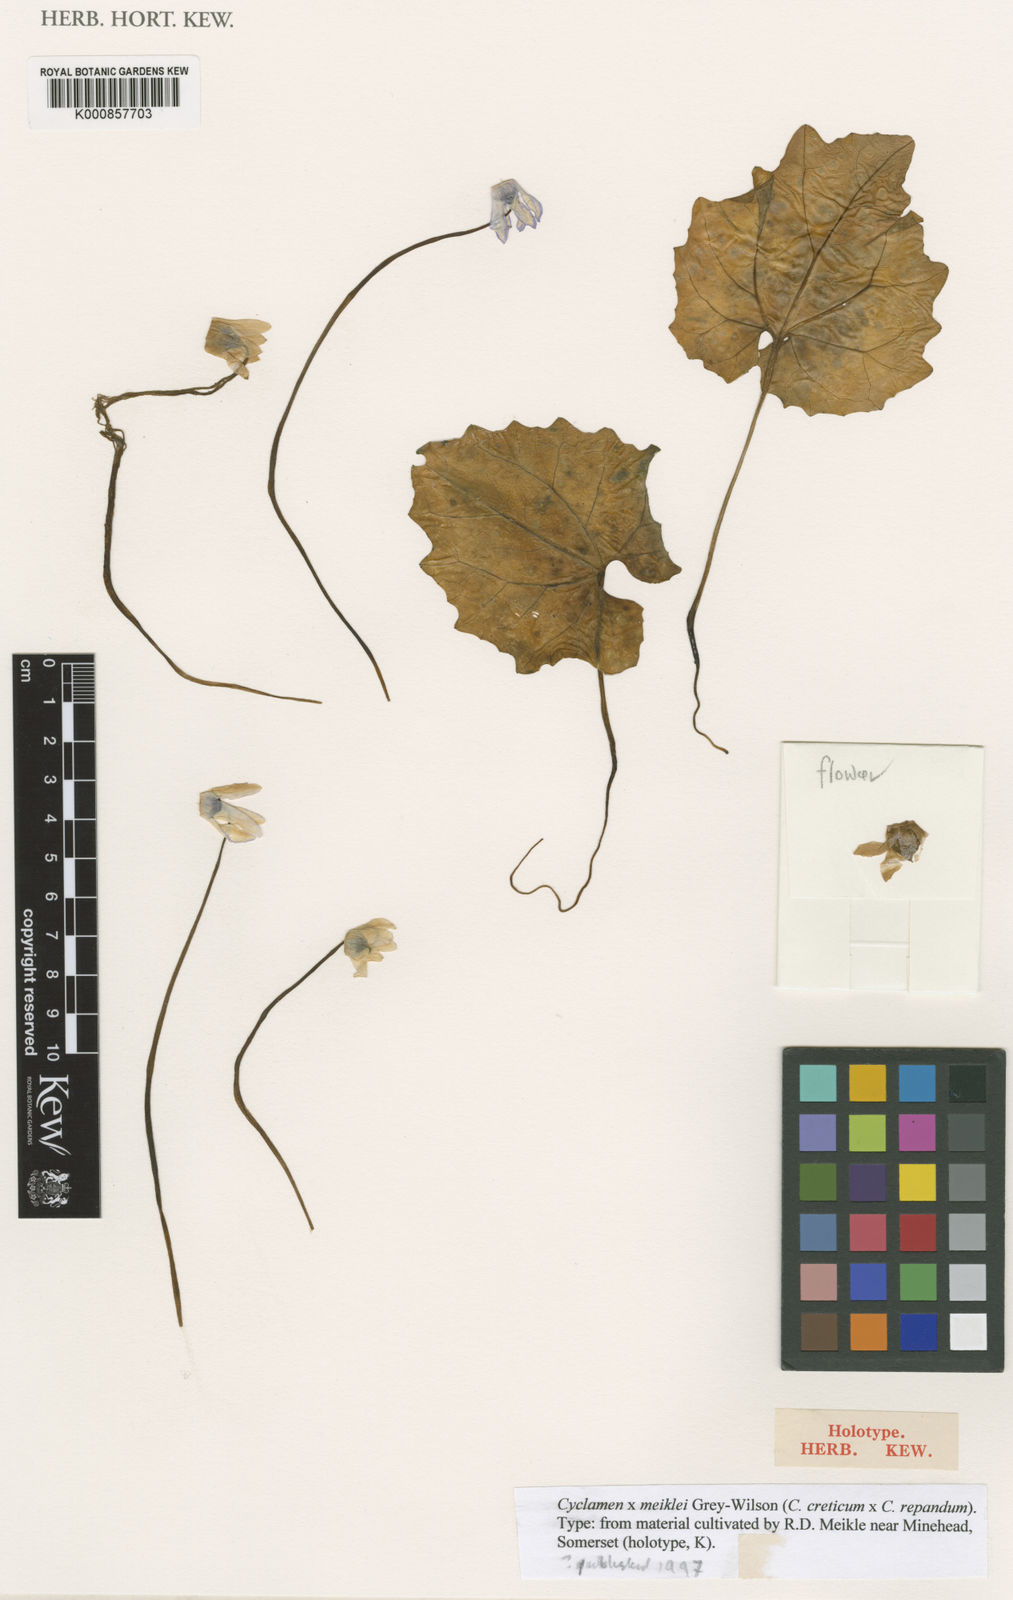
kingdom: Plantae
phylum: Tracheophyta
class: Magnoliopsida
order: Ericales
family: Primulaceae
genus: Cyclamen
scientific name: Cyclamen meiklei
